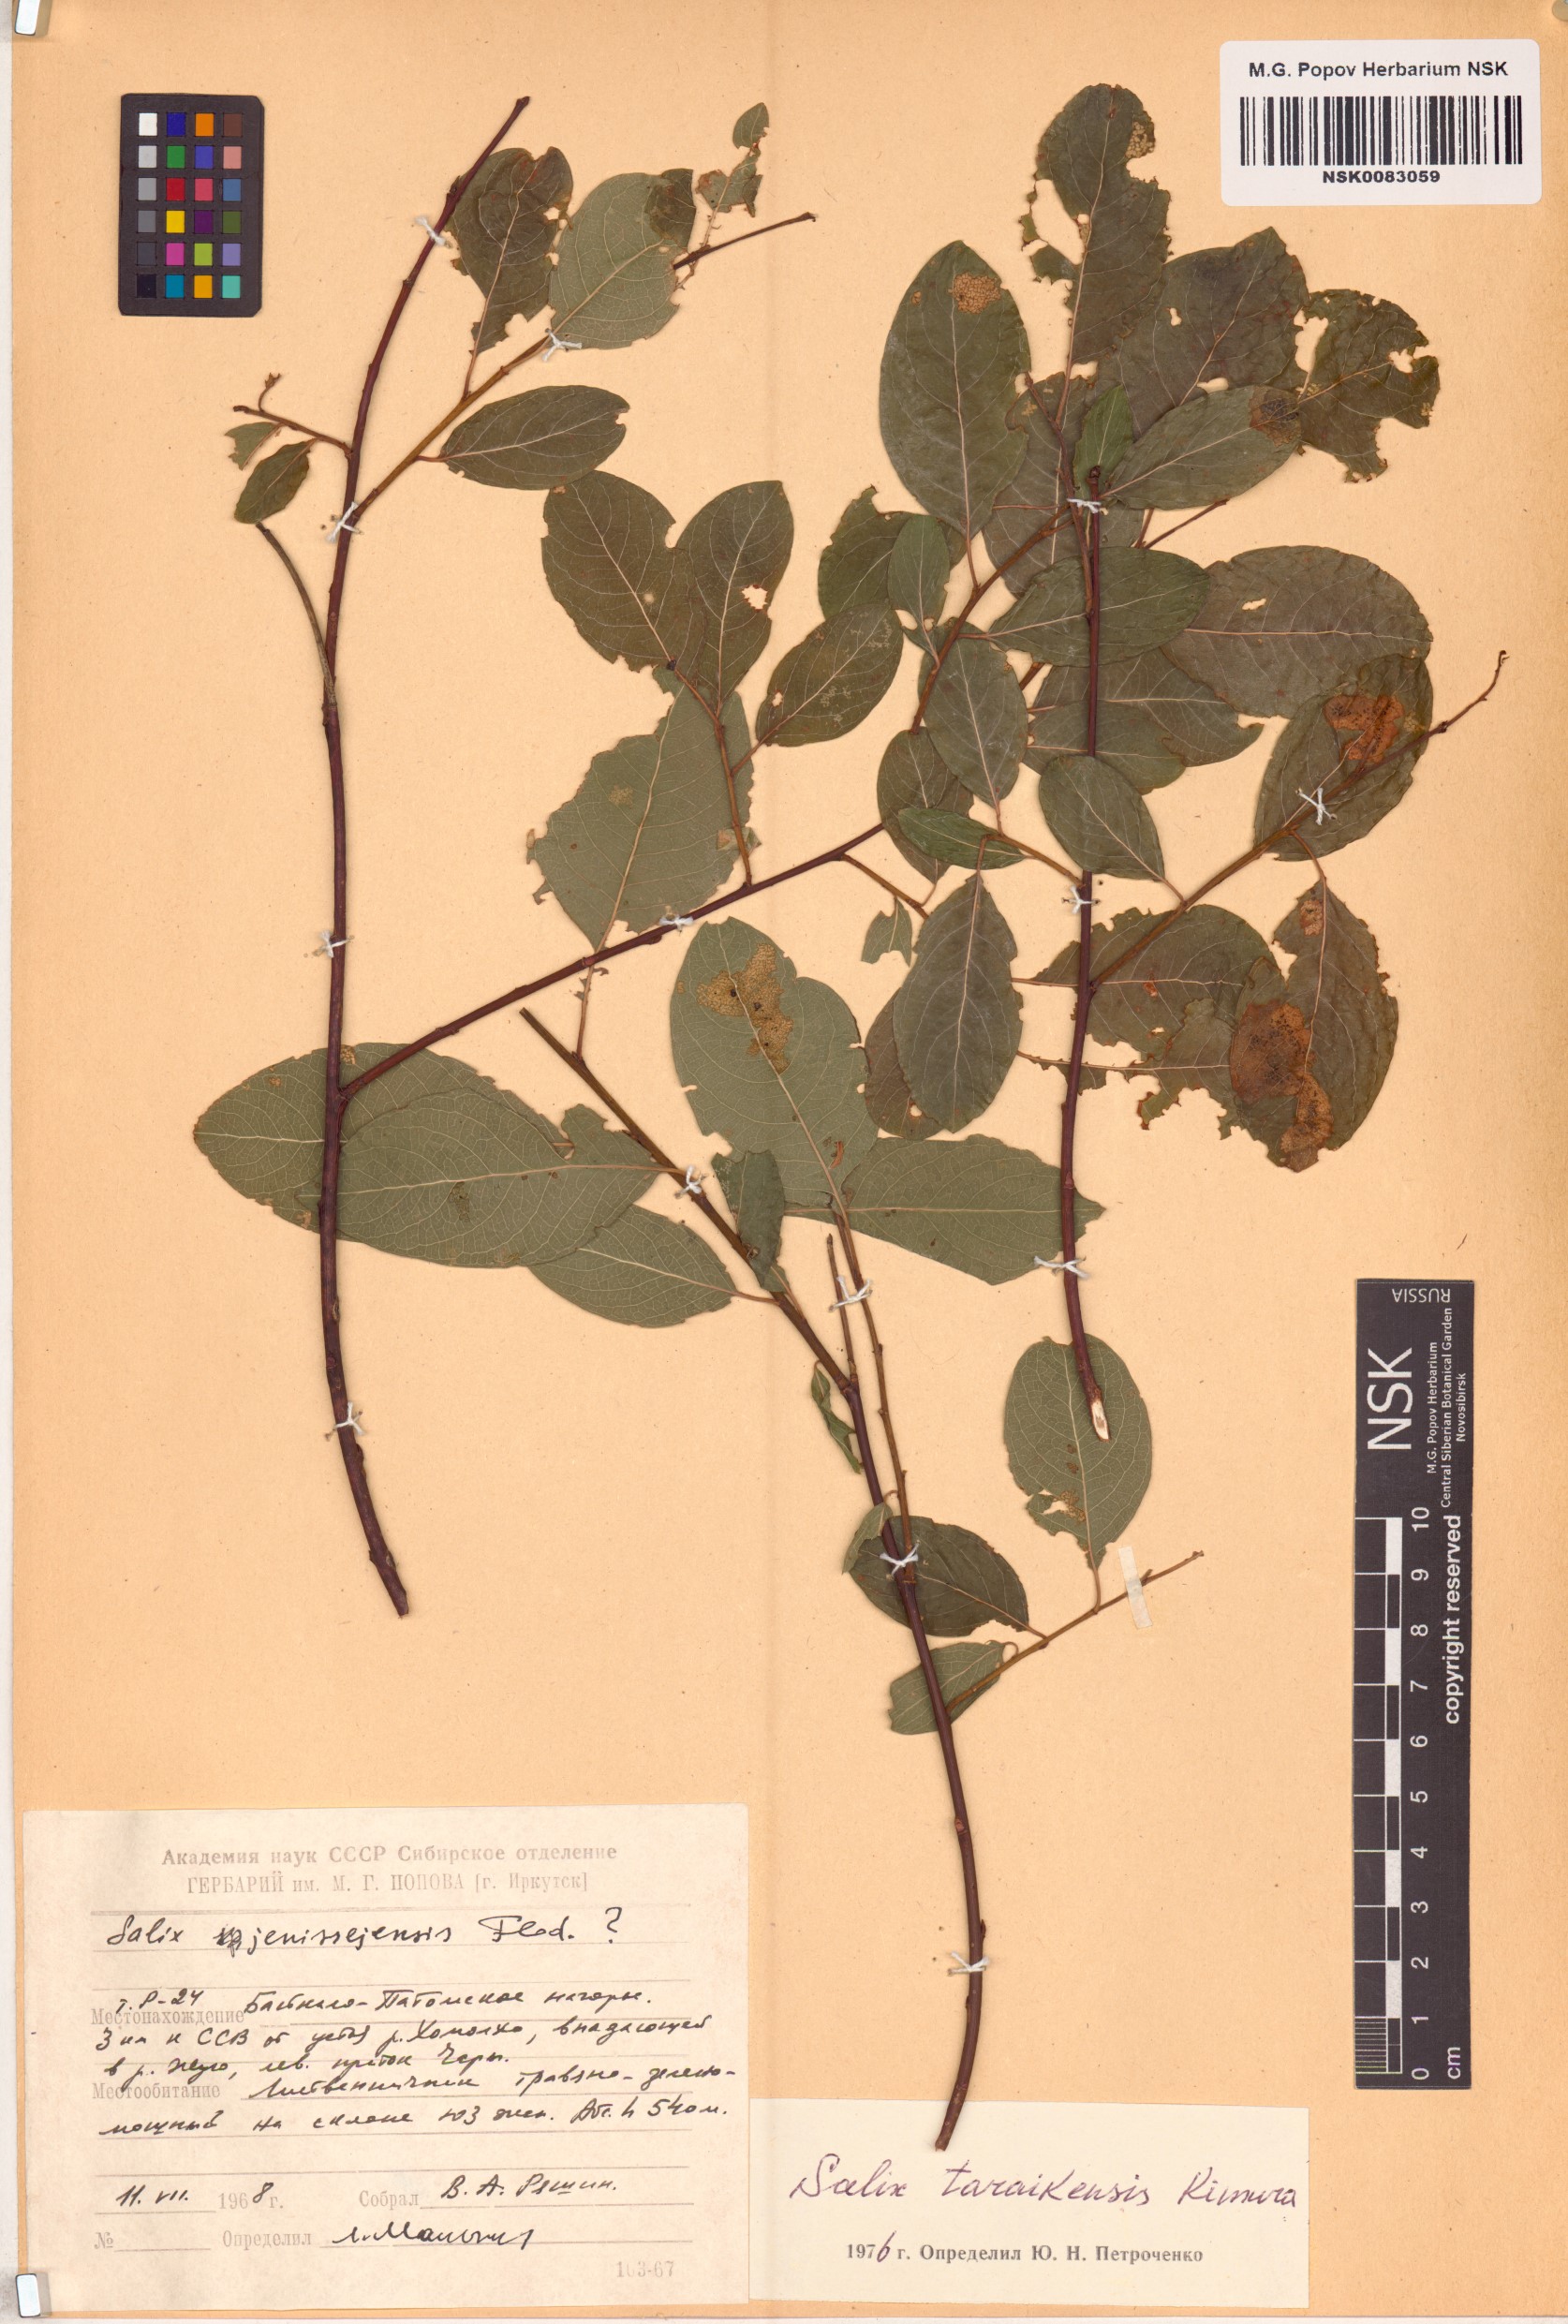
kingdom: Plantae
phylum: Tracheophyta
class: Magnoliopsida
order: Malpighiales
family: Salicaceae
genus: Salix
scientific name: Salix taraikensis
